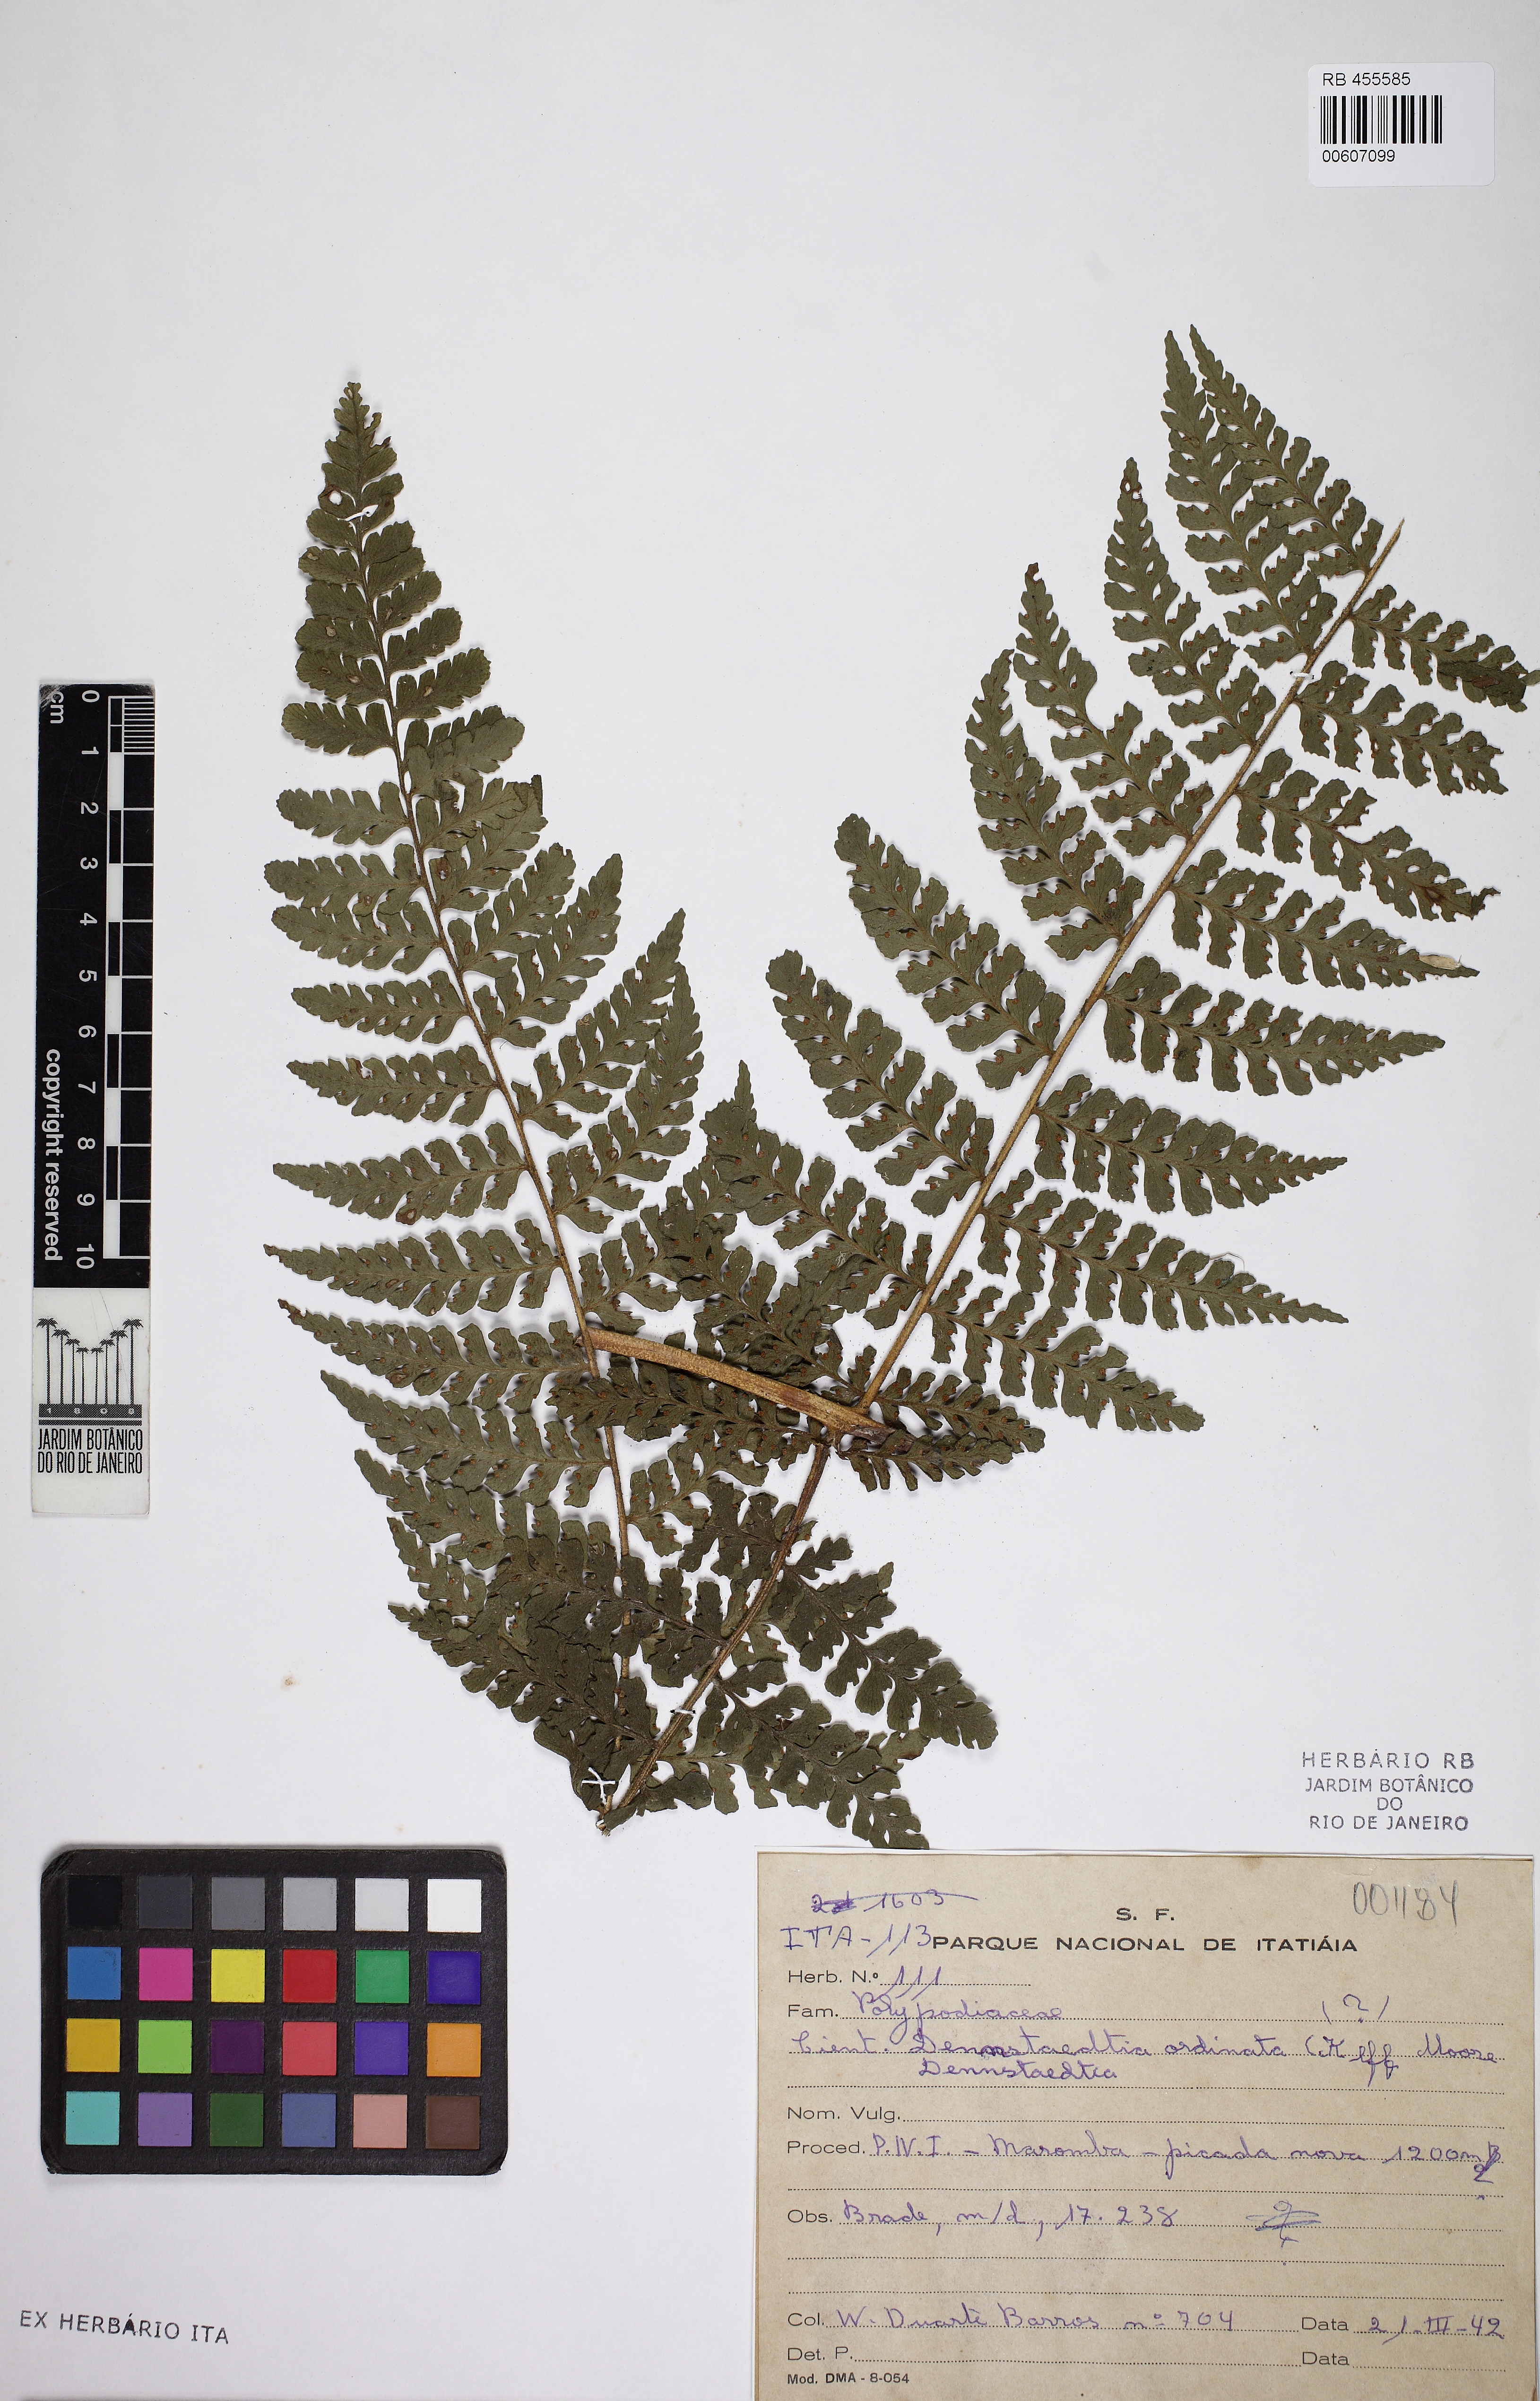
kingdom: Plantae
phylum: Tracheophyta
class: Polypodiopsida
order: Polypodiales
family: Dennstaedtiaceae
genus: Dennstaedtia
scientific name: Dennstaedtia cornuta
